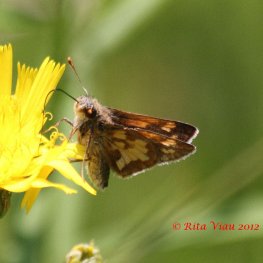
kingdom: Animalia
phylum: Arthropoda
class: Insecta
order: Lepidoptera
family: Hesperiidae
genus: Polites
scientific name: Polites coras
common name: Peck's Skipper
